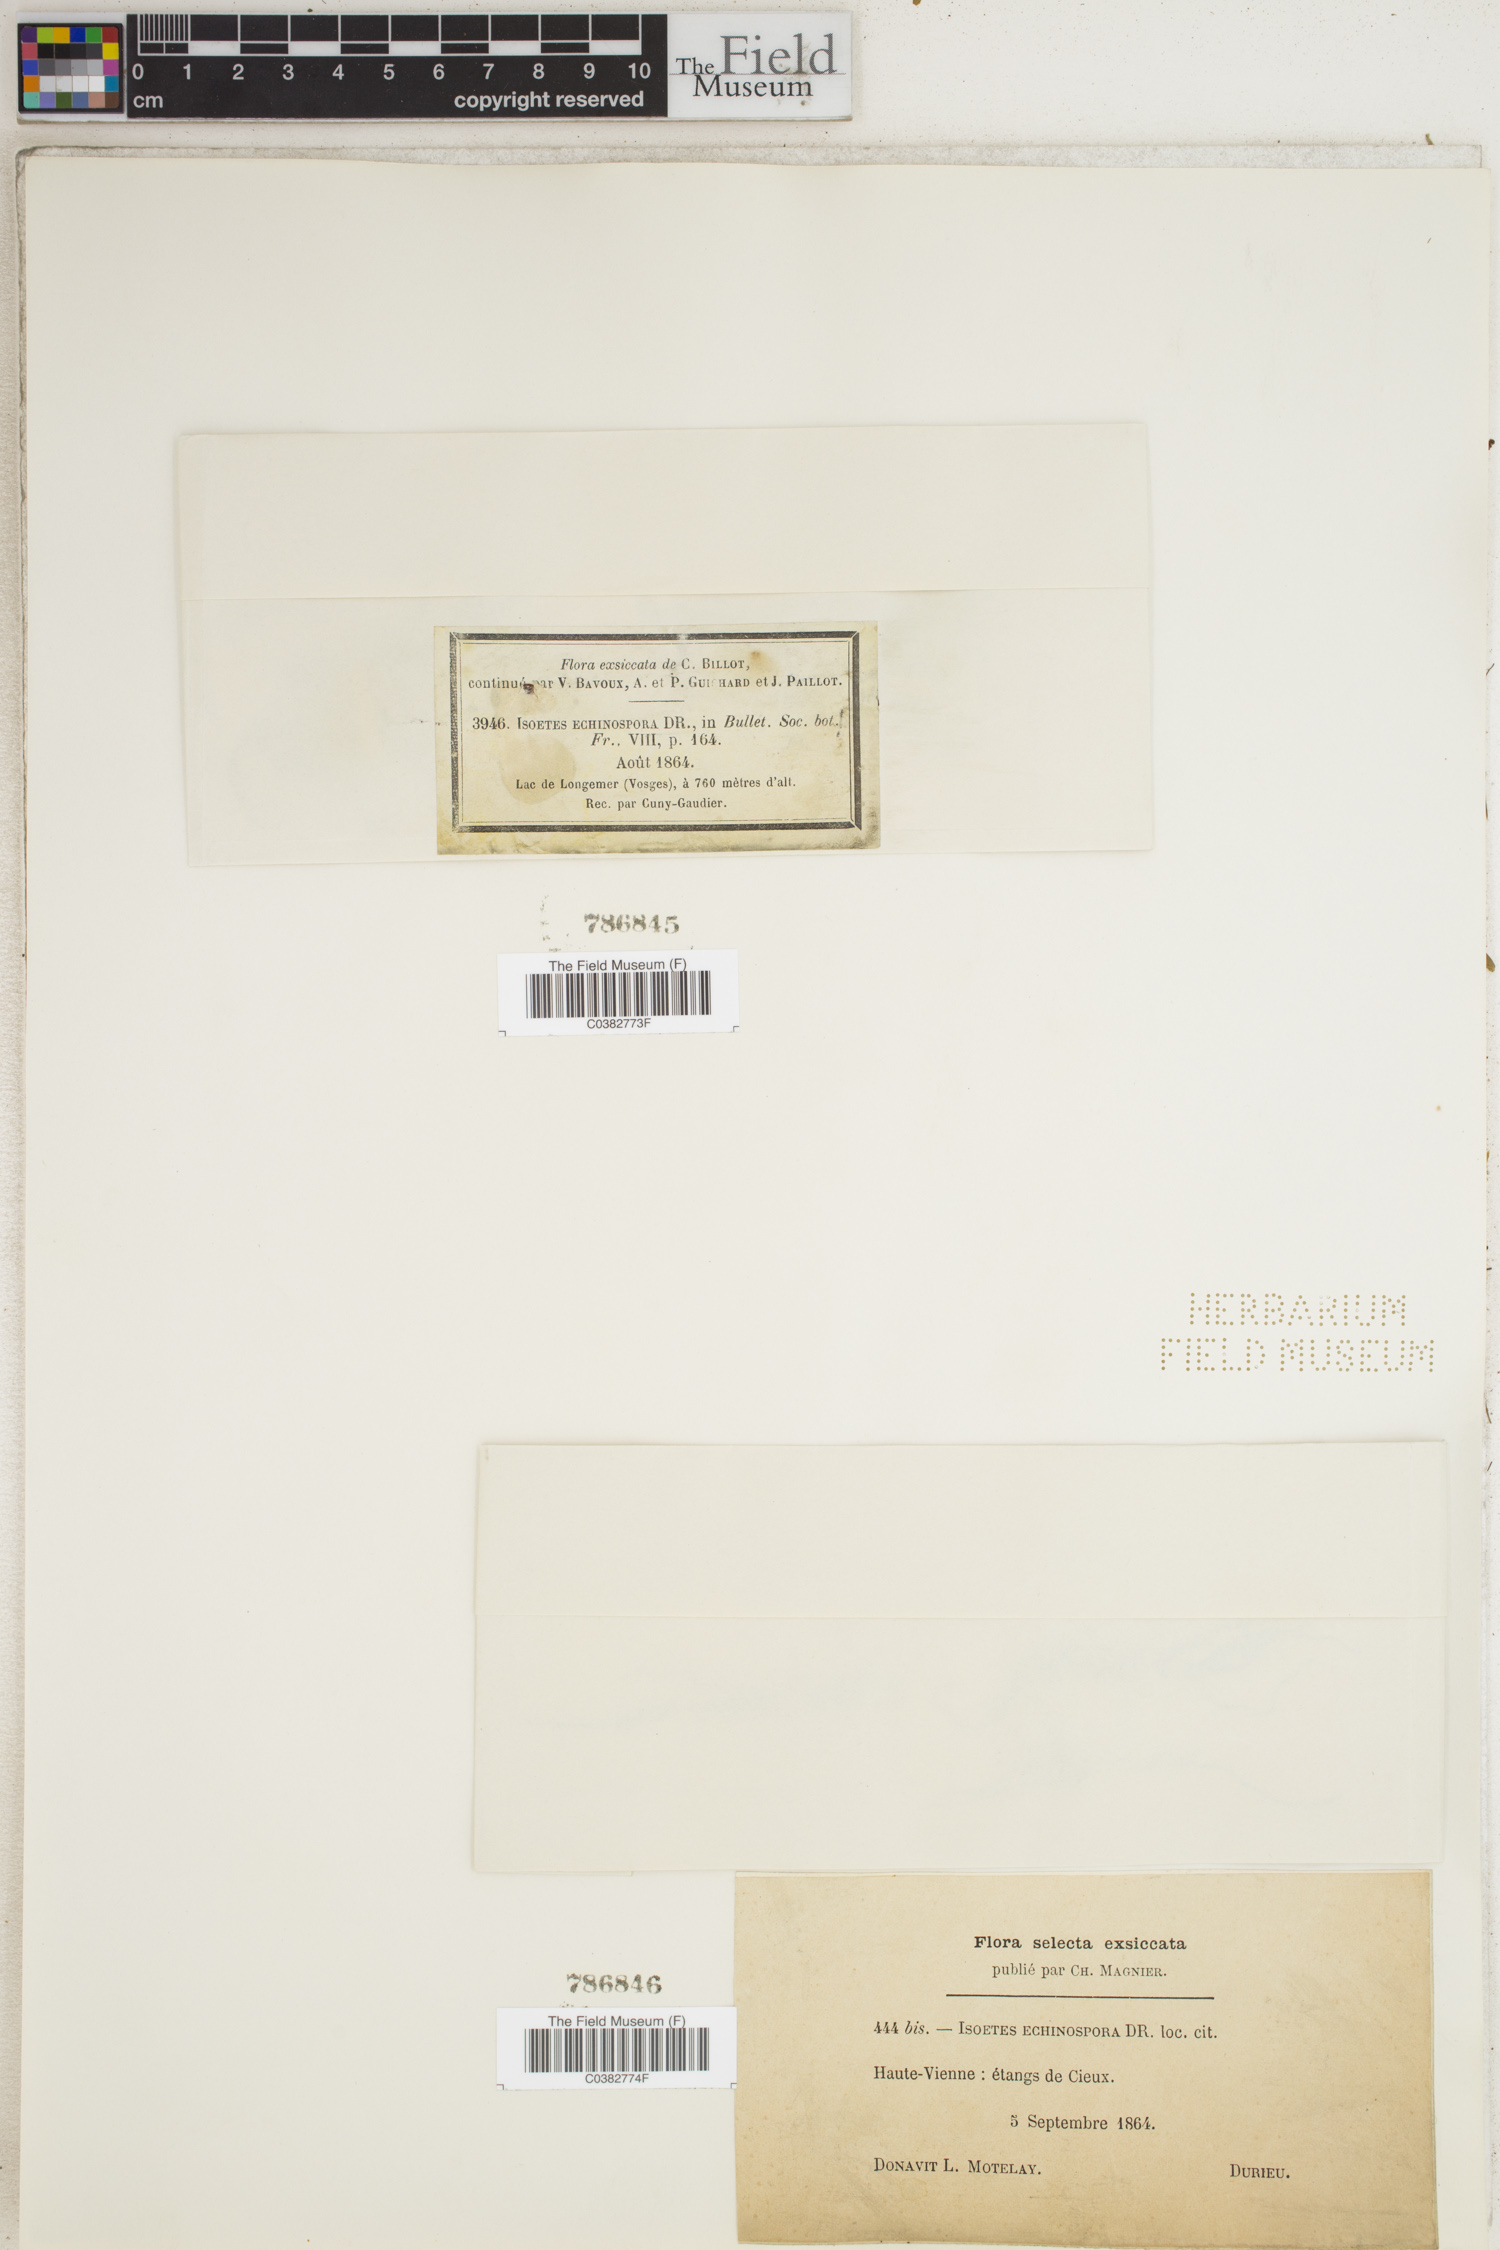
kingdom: Plantae
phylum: Tracheophyta
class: Lycopodiopsida
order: Isoetales
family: Isoetaceae
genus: Isoetes
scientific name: Isoetes echinospora
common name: Spring quillwort
